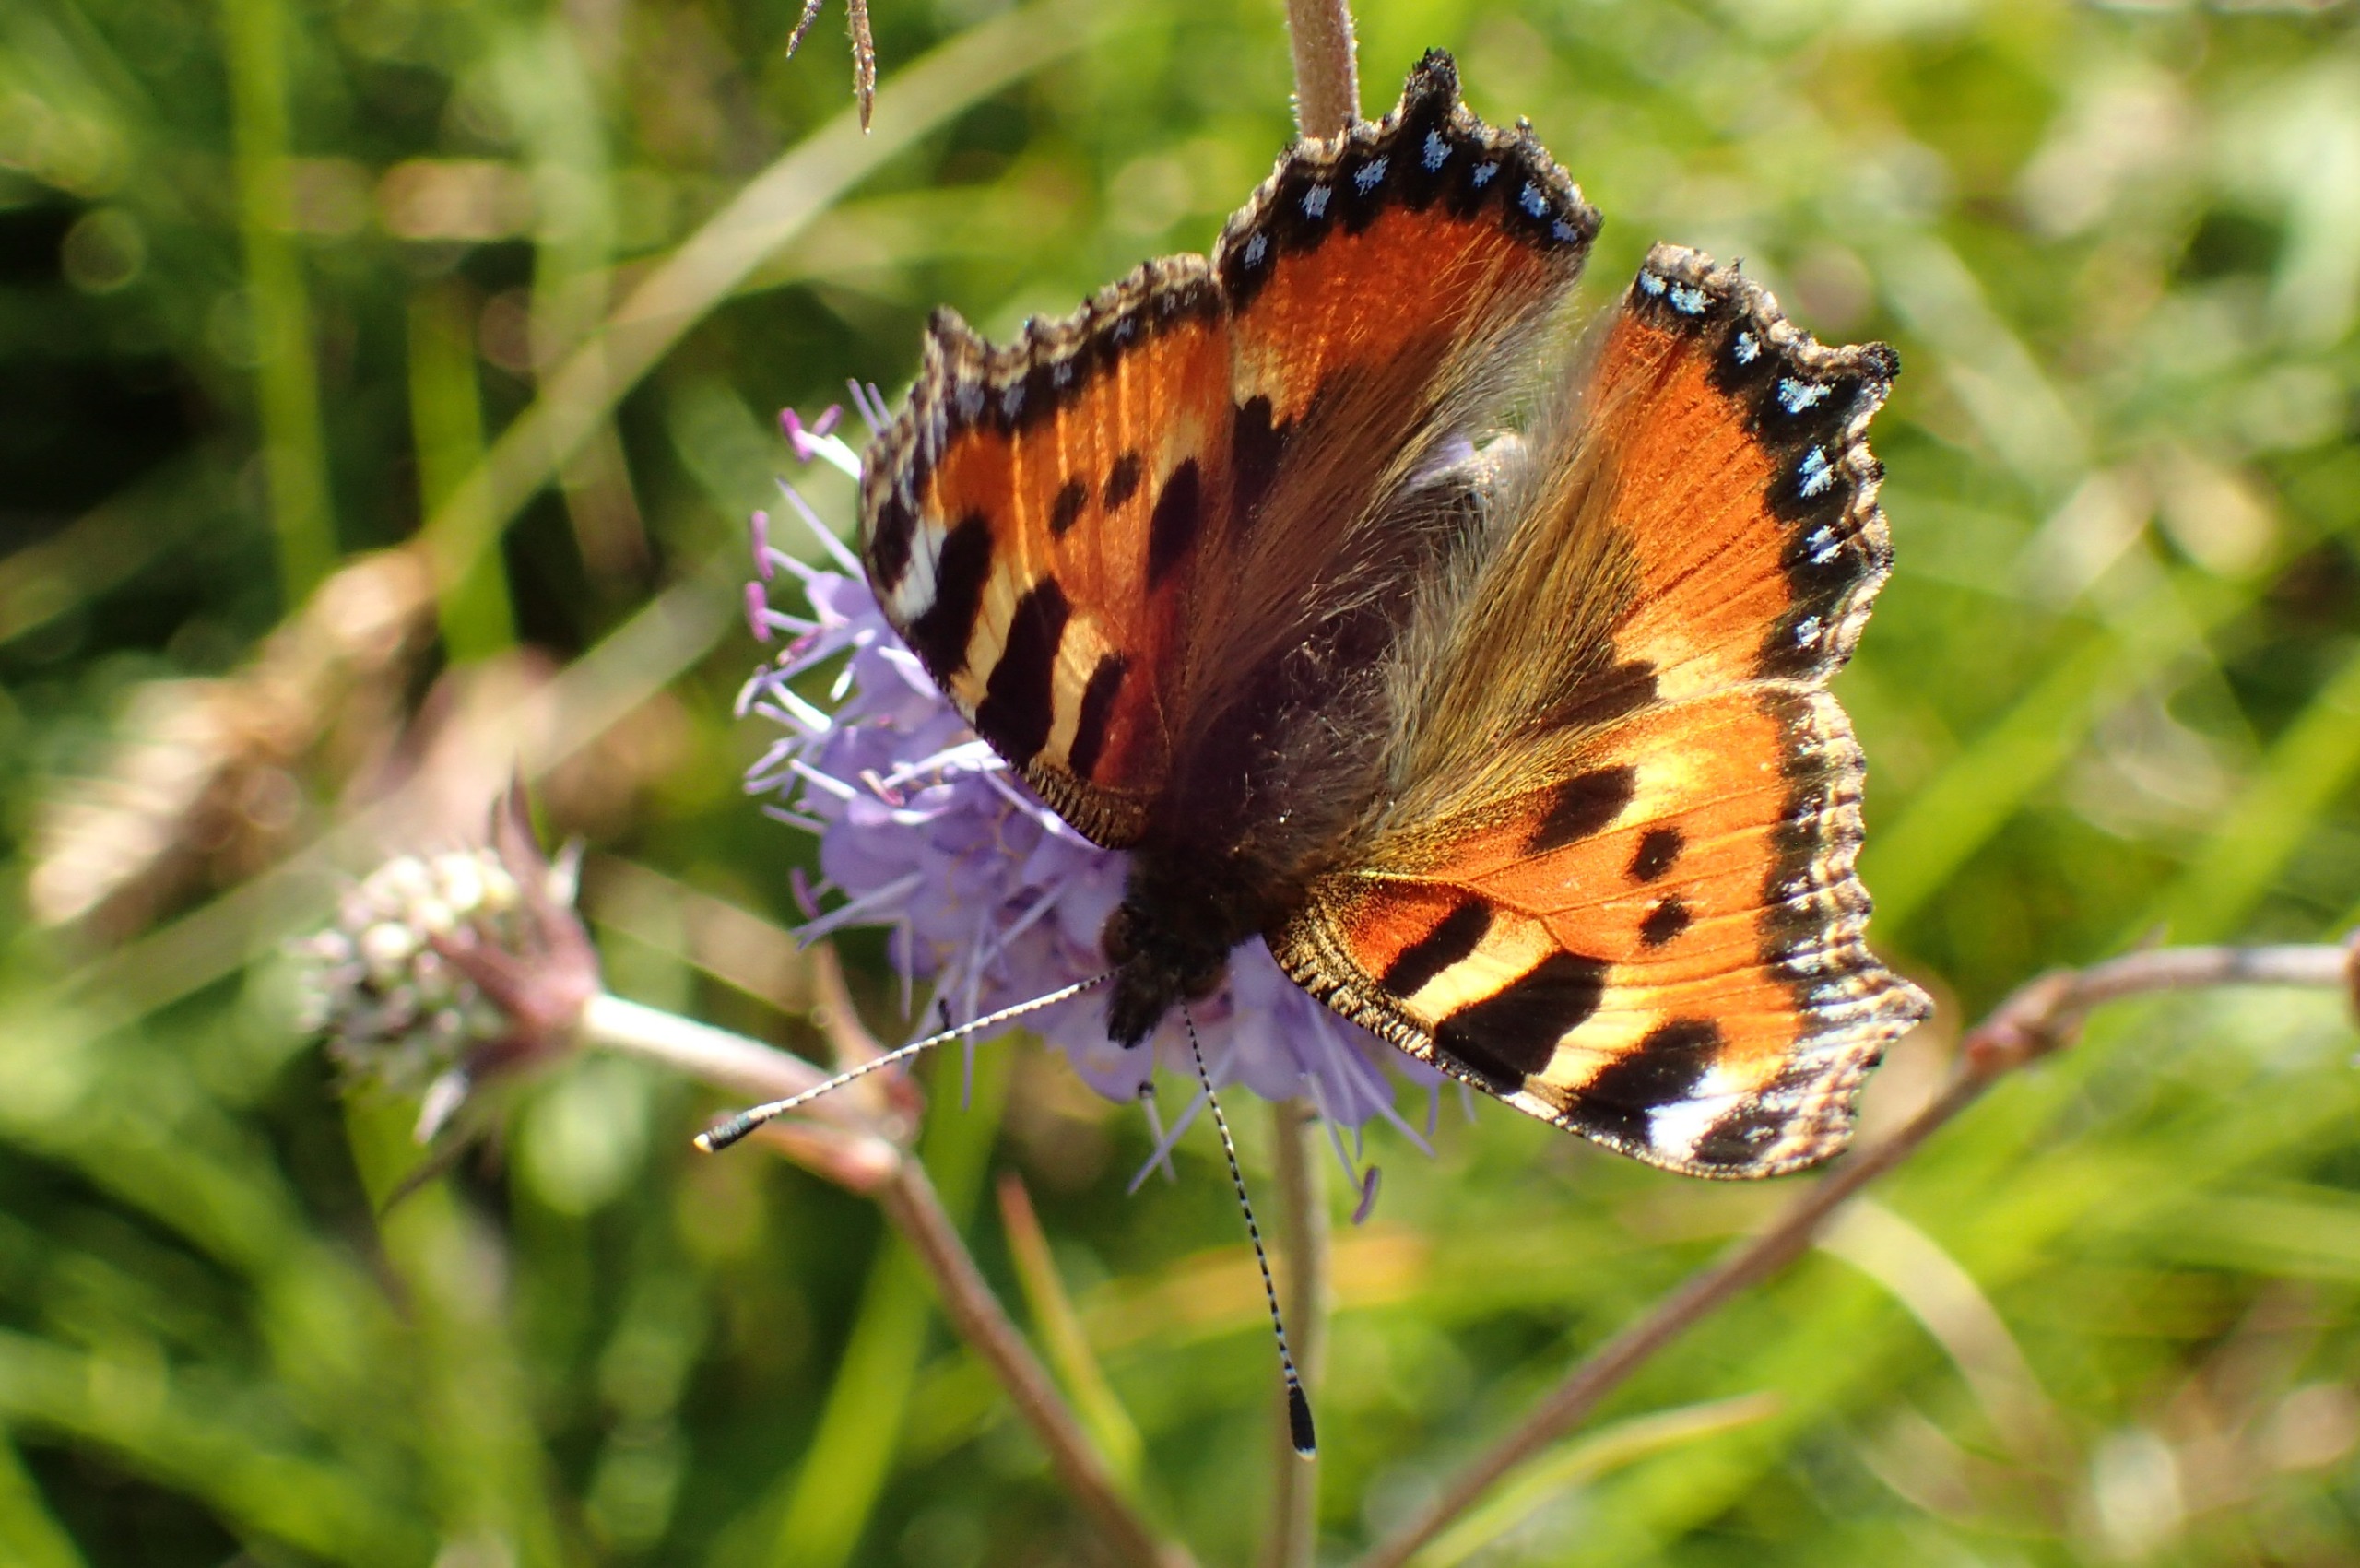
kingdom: Animalia
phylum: Arthropoda
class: Insecta
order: Lepidoptera
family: Nymphalidae
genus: Aglais
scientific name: Aglais urticae
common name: Nældens takvinge
